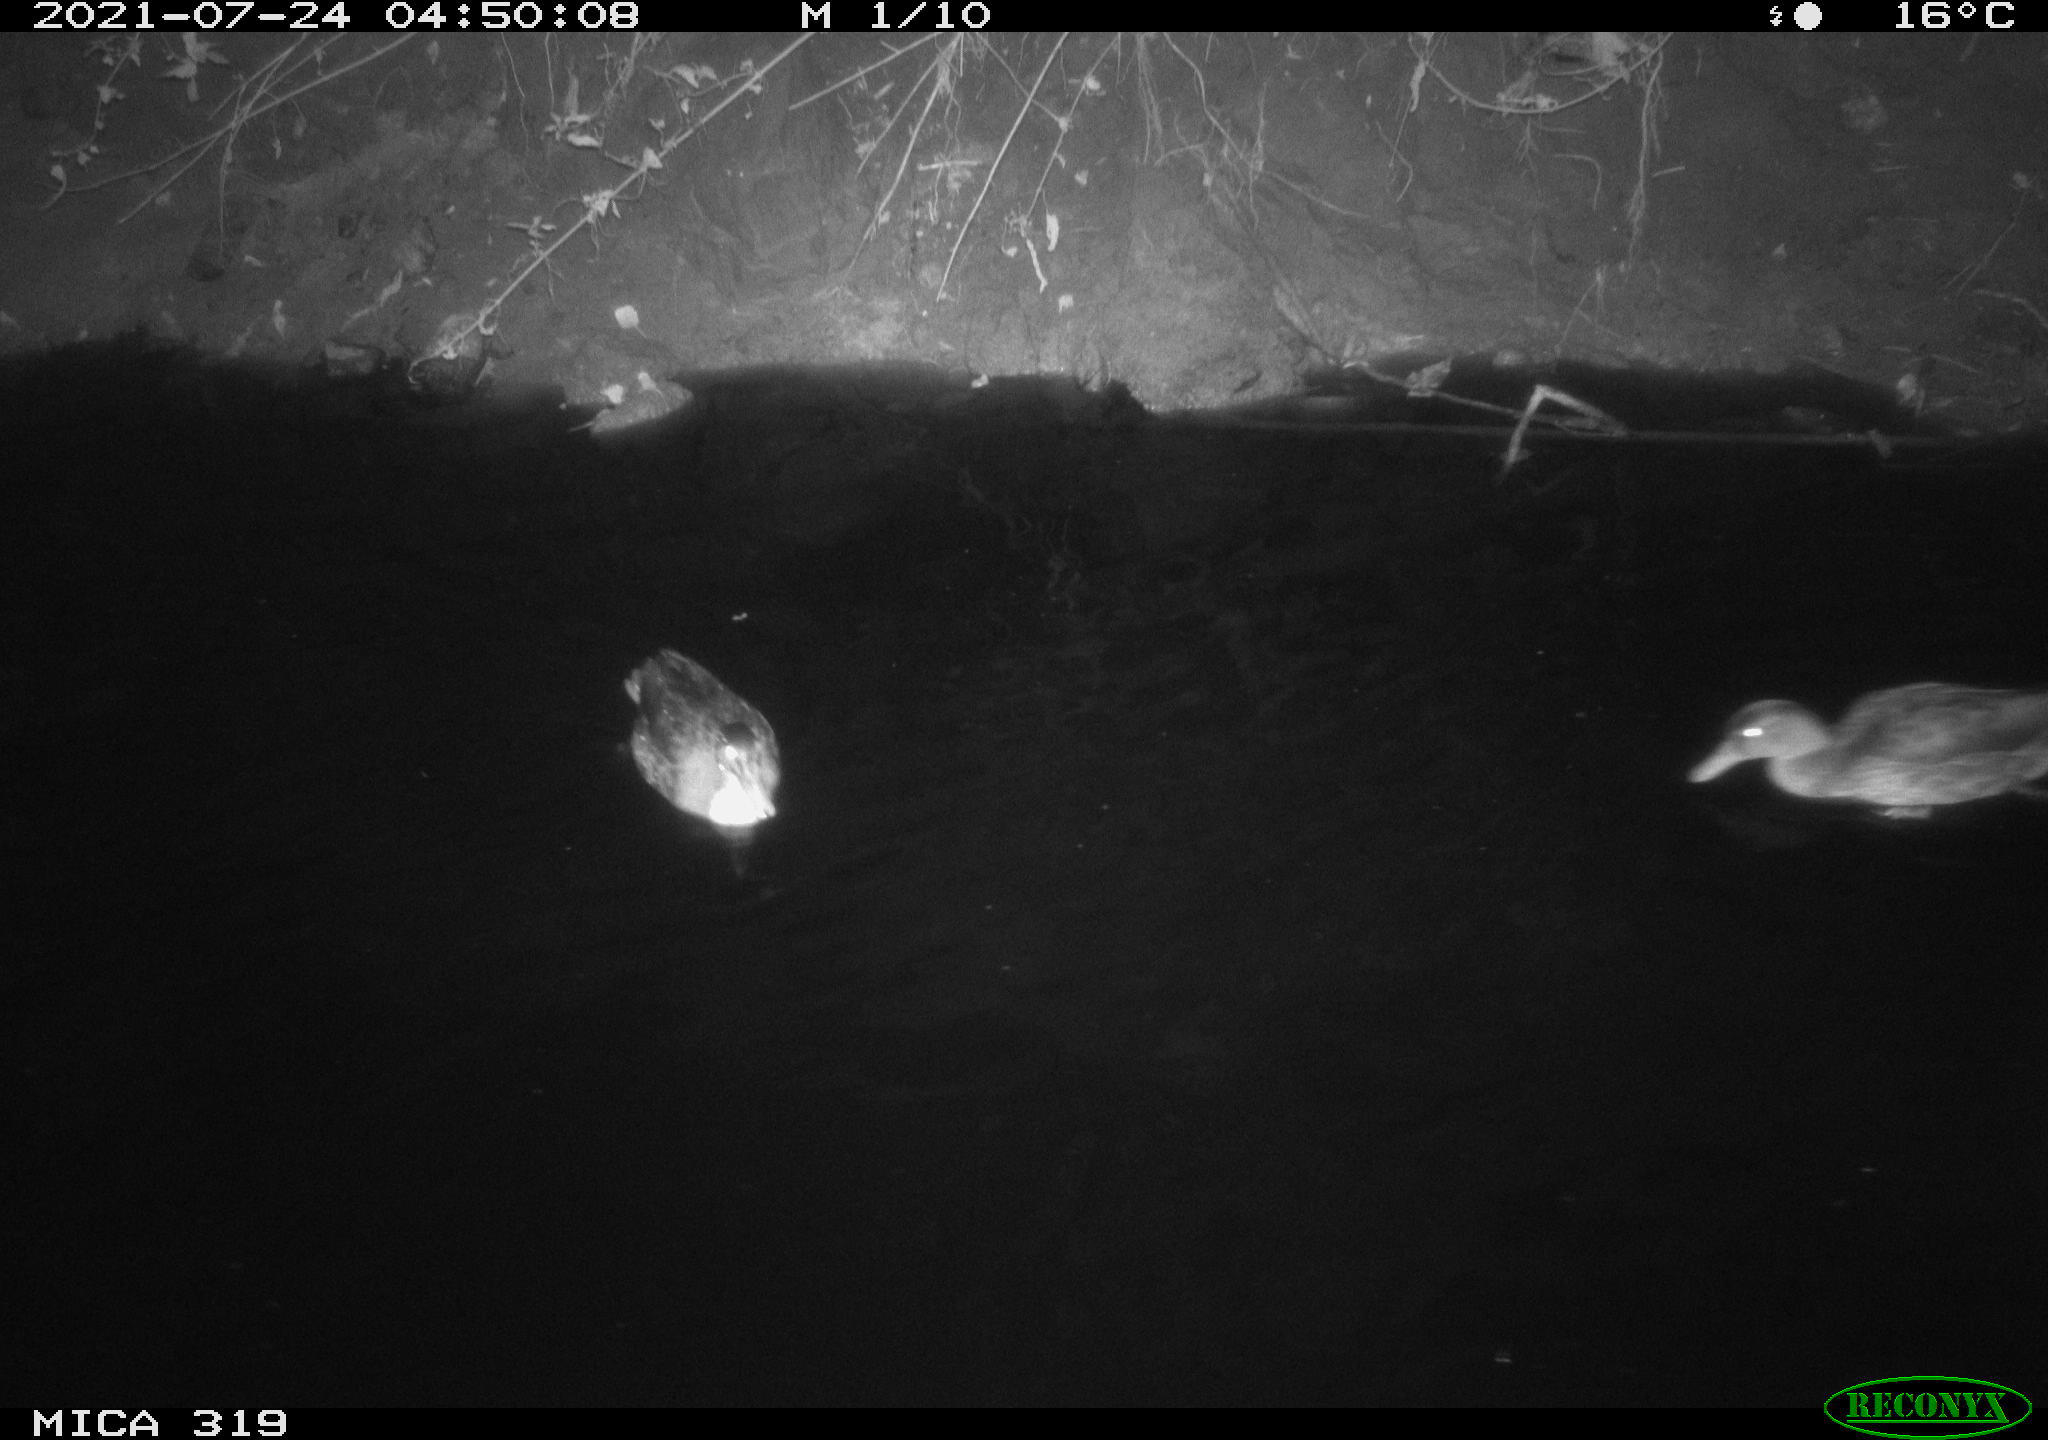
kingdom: Animalia
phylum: Chordata
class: Aves
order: Anseriformes
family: Anatidae
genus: Anas
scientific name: Anas platyrhynchos
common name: Mallard
